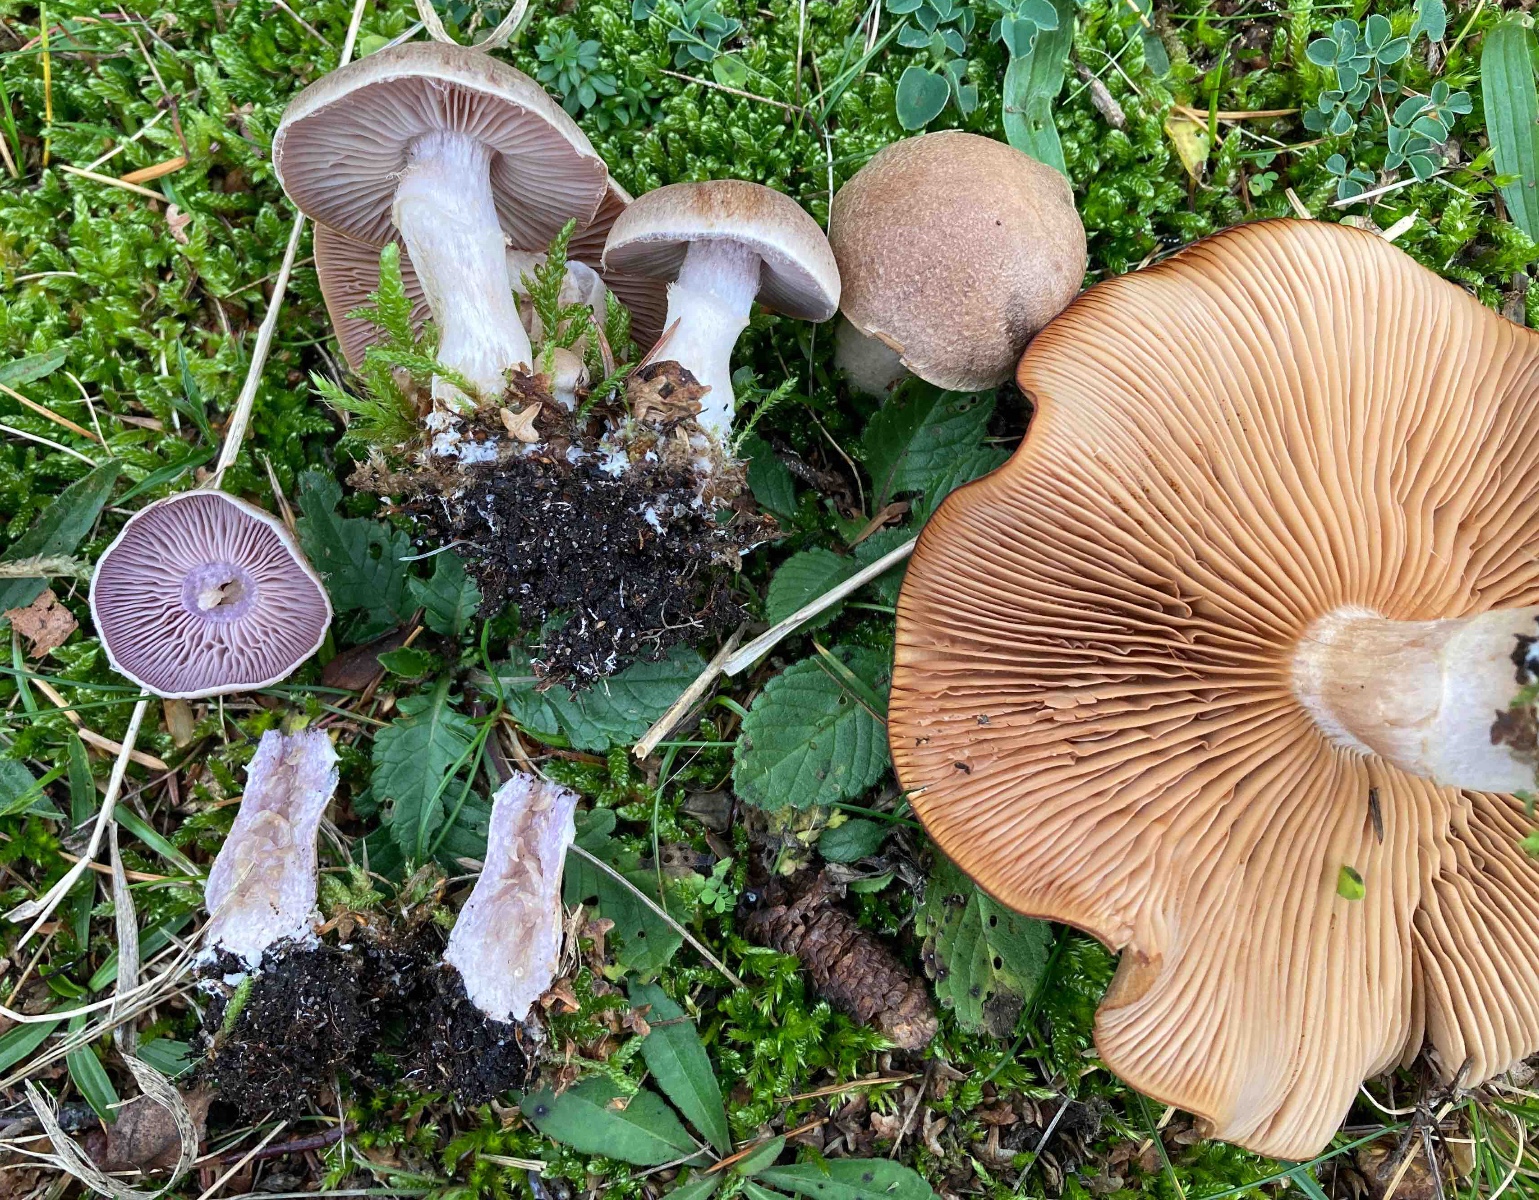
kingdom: Fungi
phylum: Basidiomycota
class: Agaricomycetes
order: Agaricales
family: Cortinariaceae
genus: Cortinarius
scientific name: Cortinarius caninus
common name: gran-slørhat
